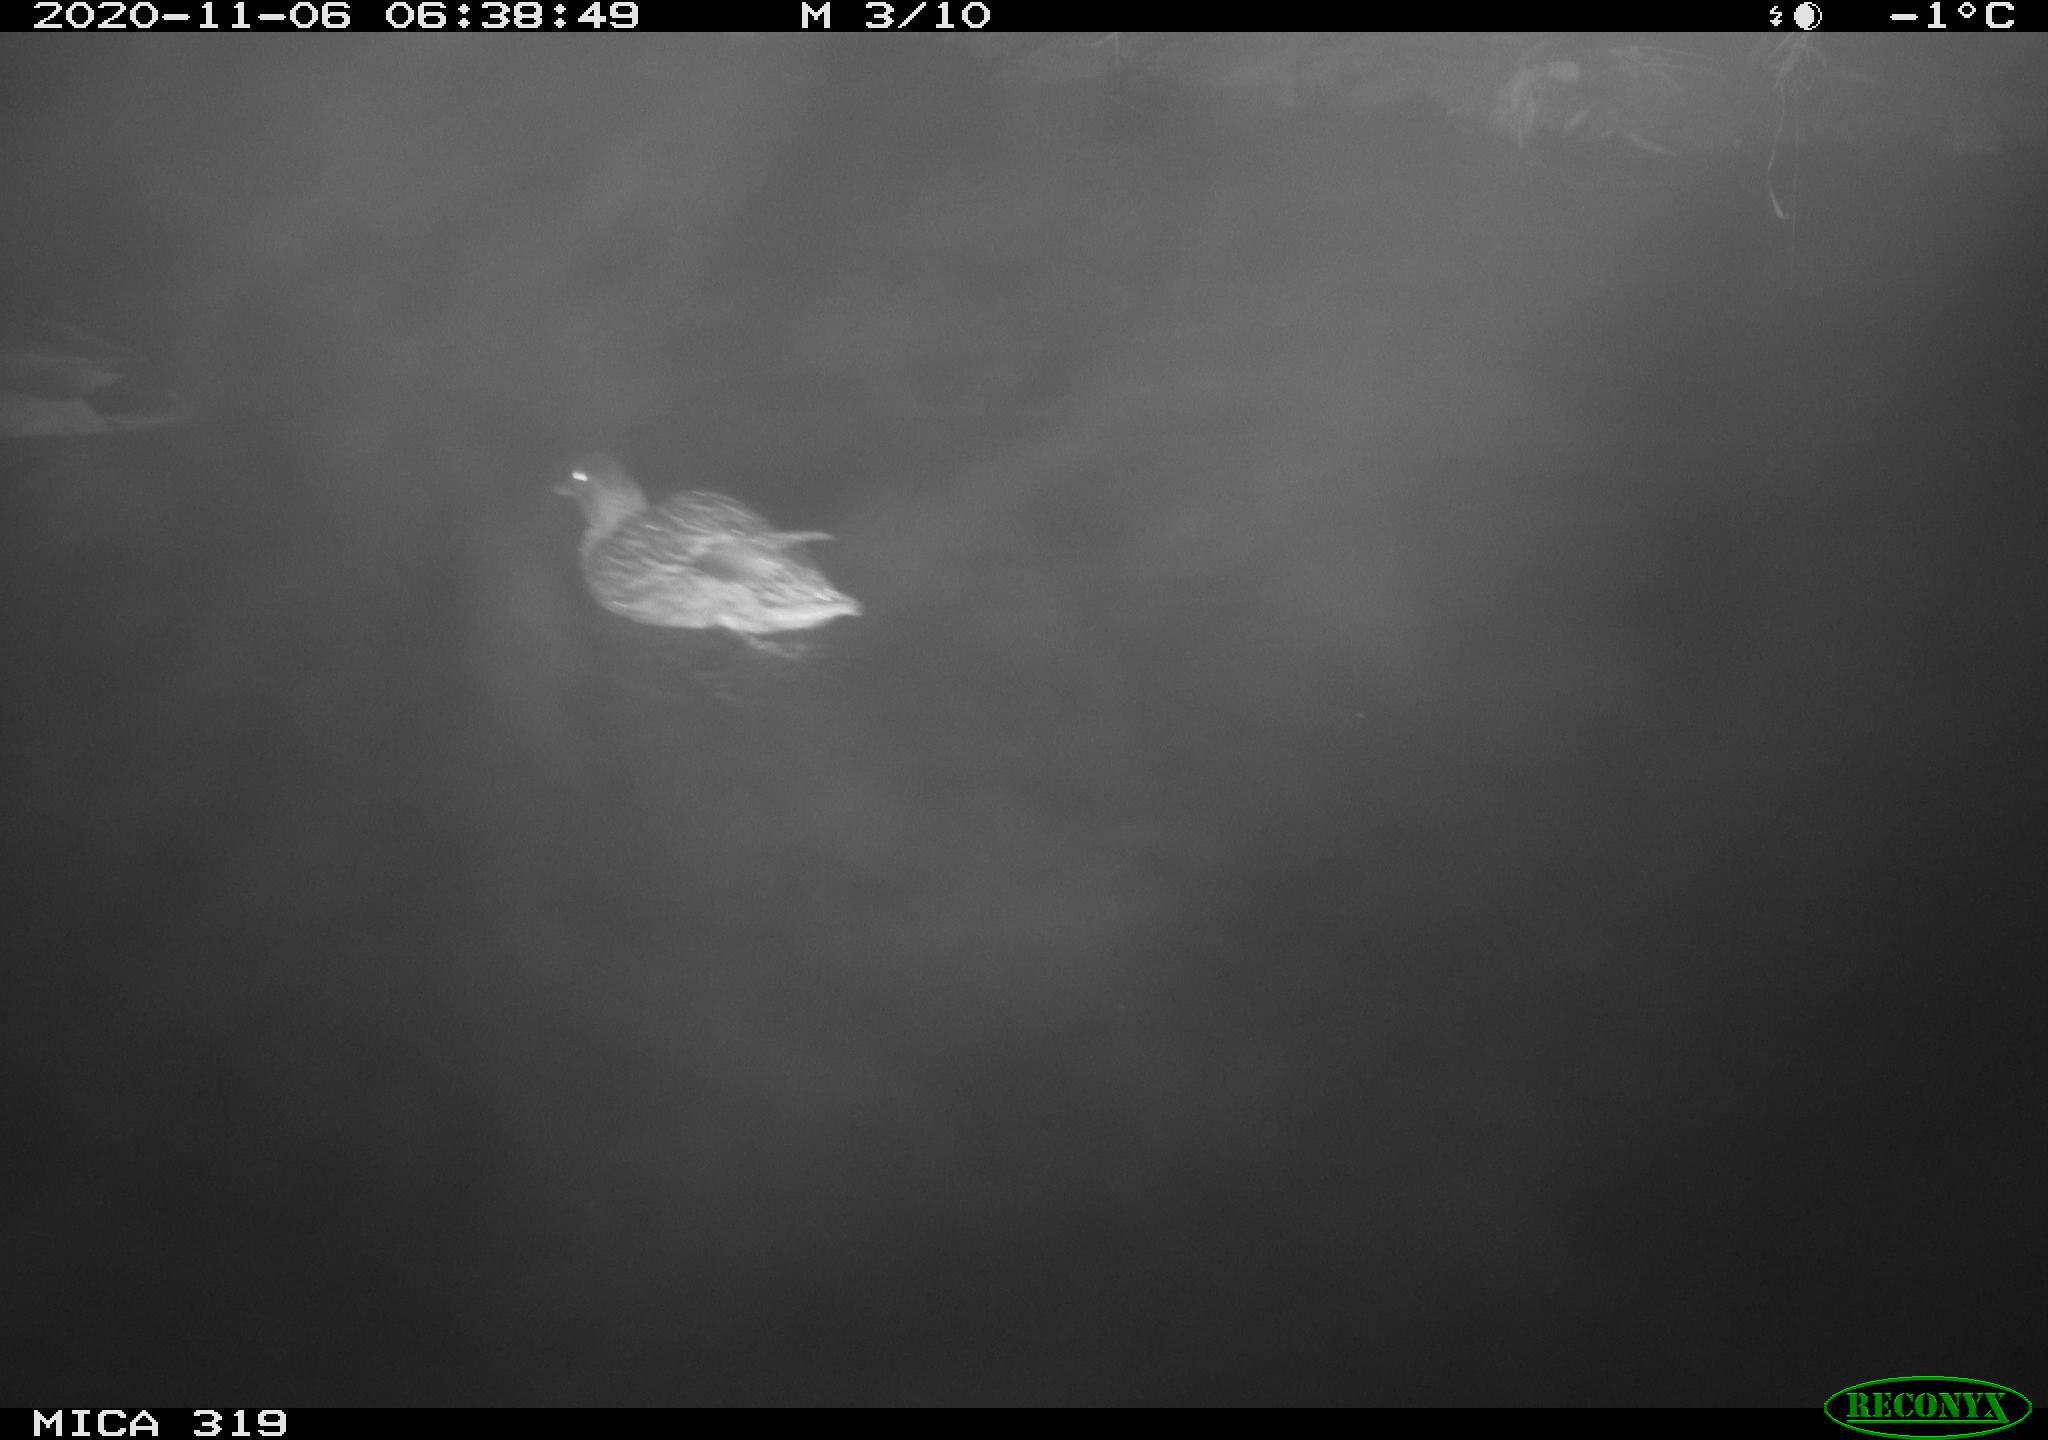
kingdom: Animalia
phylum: Chordata
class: Aves
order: Anseriformes
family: Anatidae
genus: Anas
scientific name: Anas platyrhynchos
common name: Mallard
